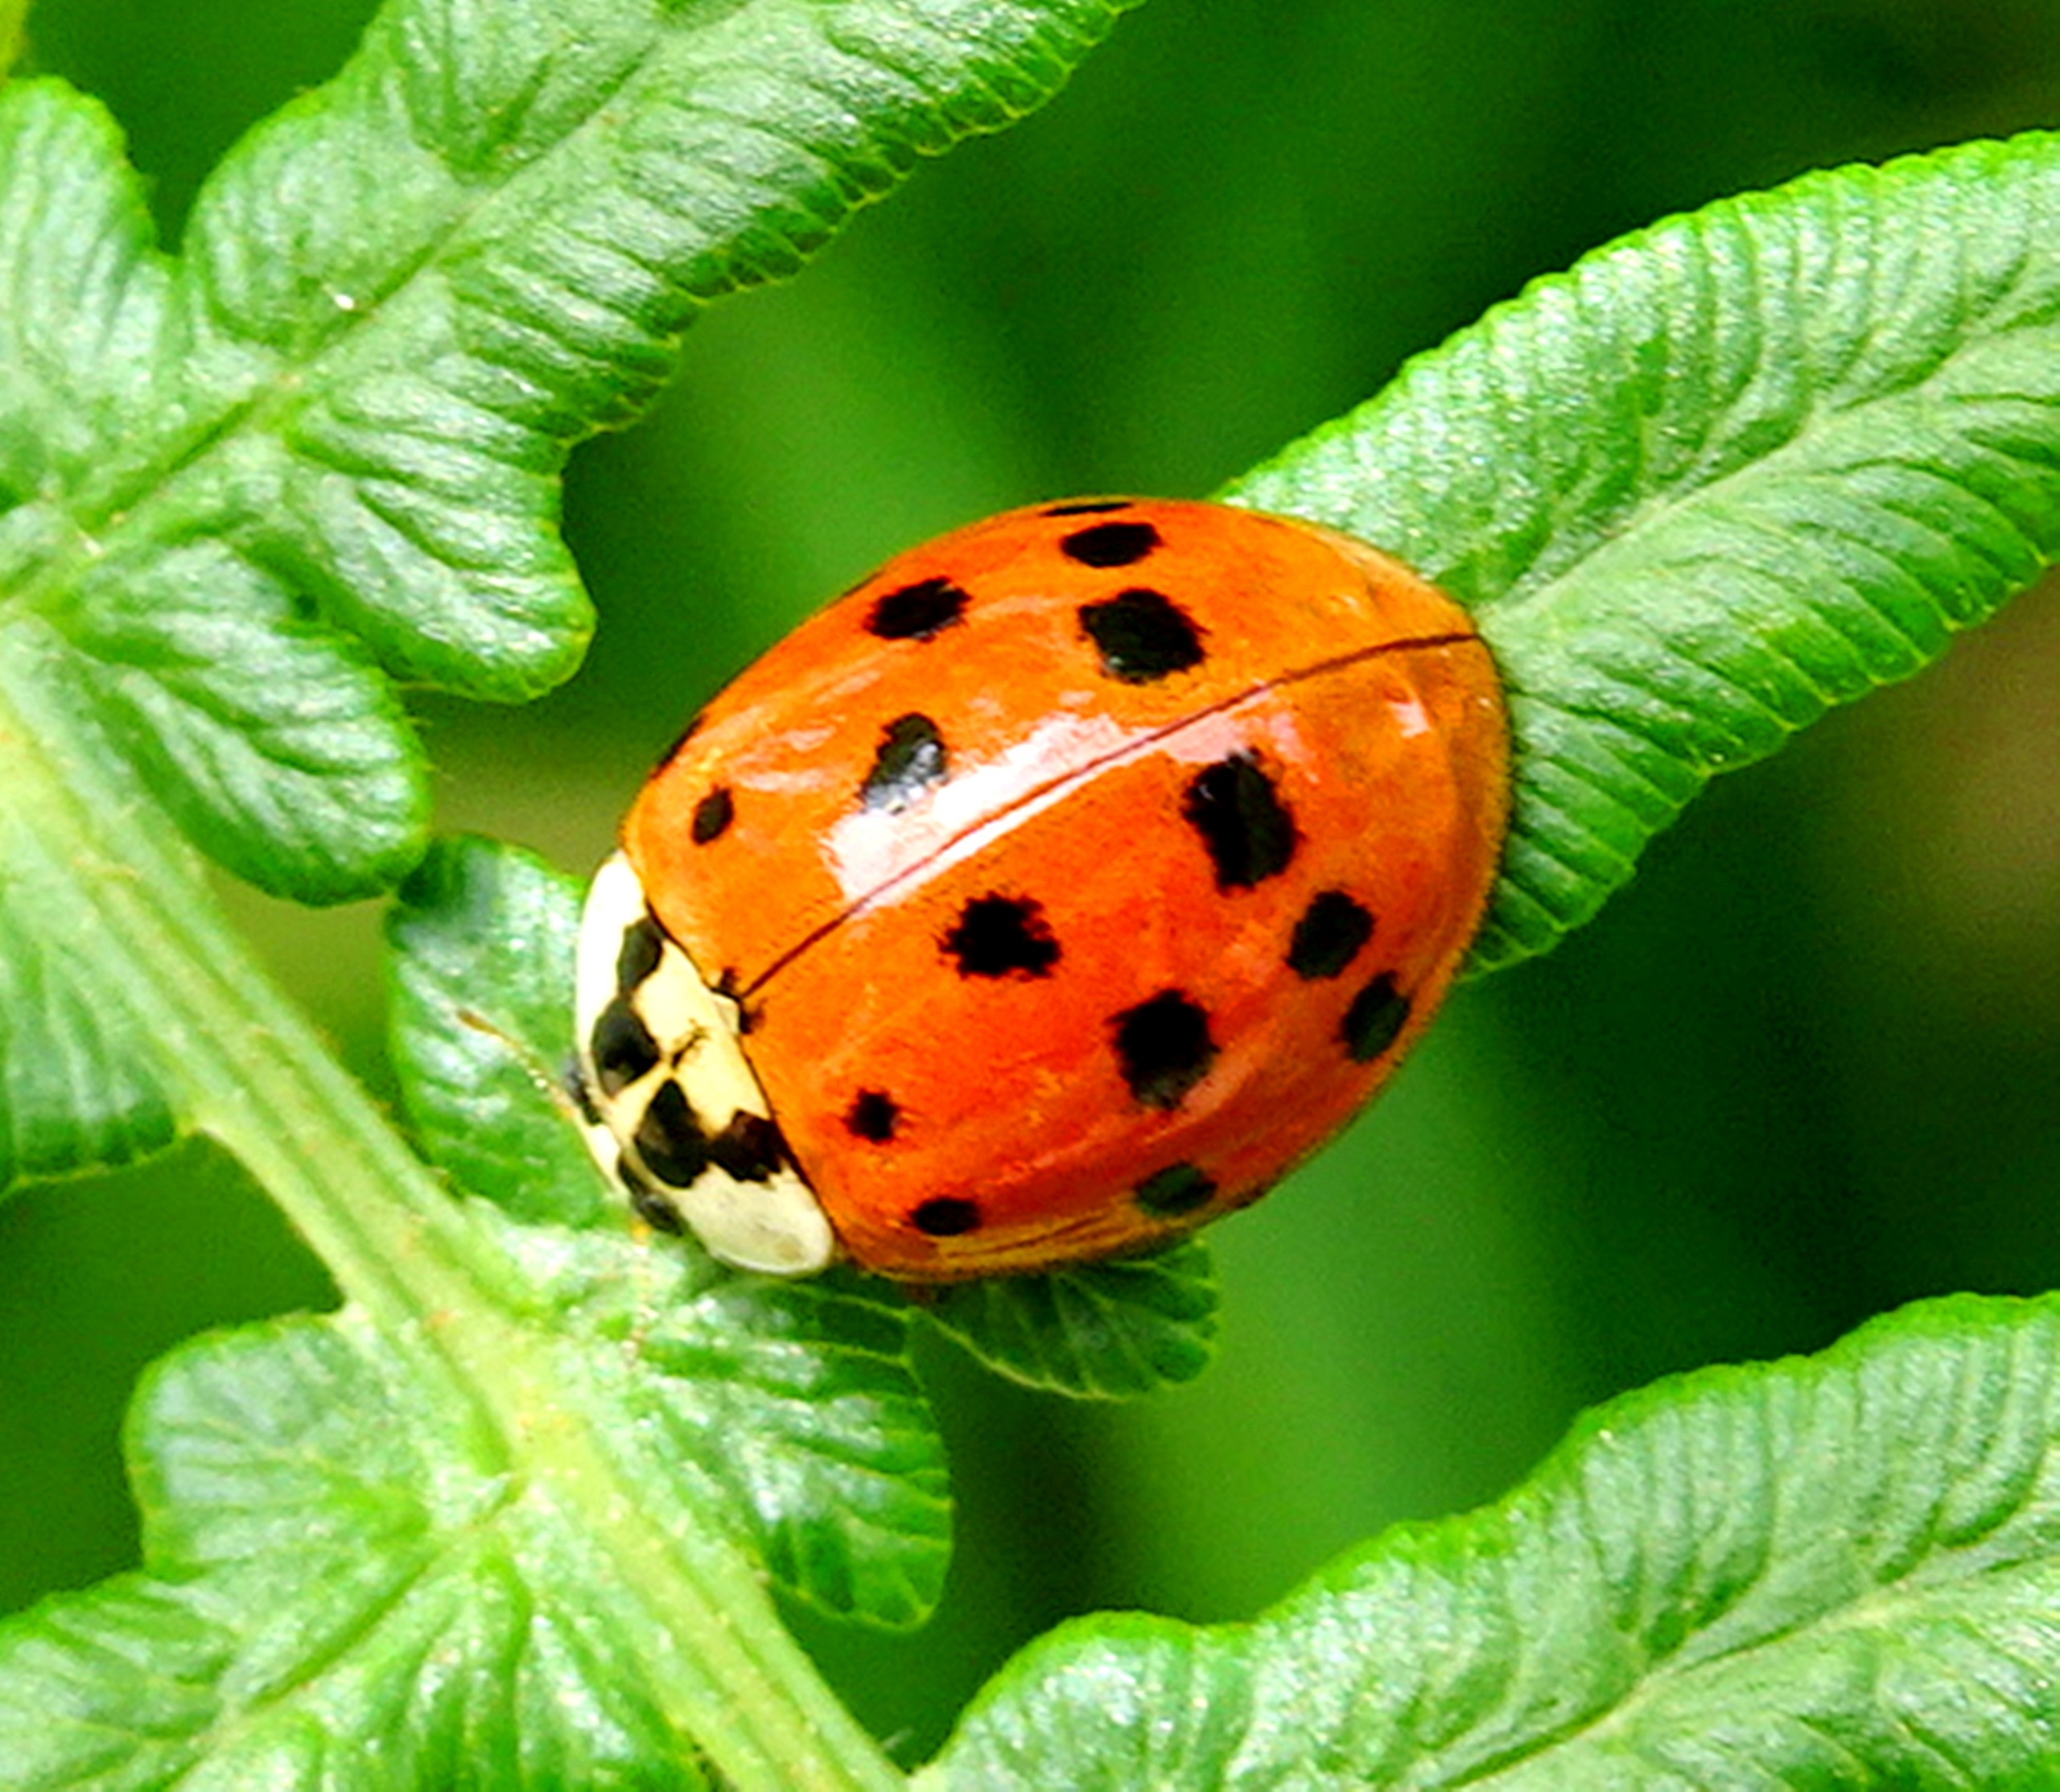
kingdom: Animalia
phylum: Arthropoda
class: Insecta
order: Coleoptera
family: Coccinellidae
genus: Harmonia
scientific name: Harmonia axyridis
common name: Harlekinmariehøne
